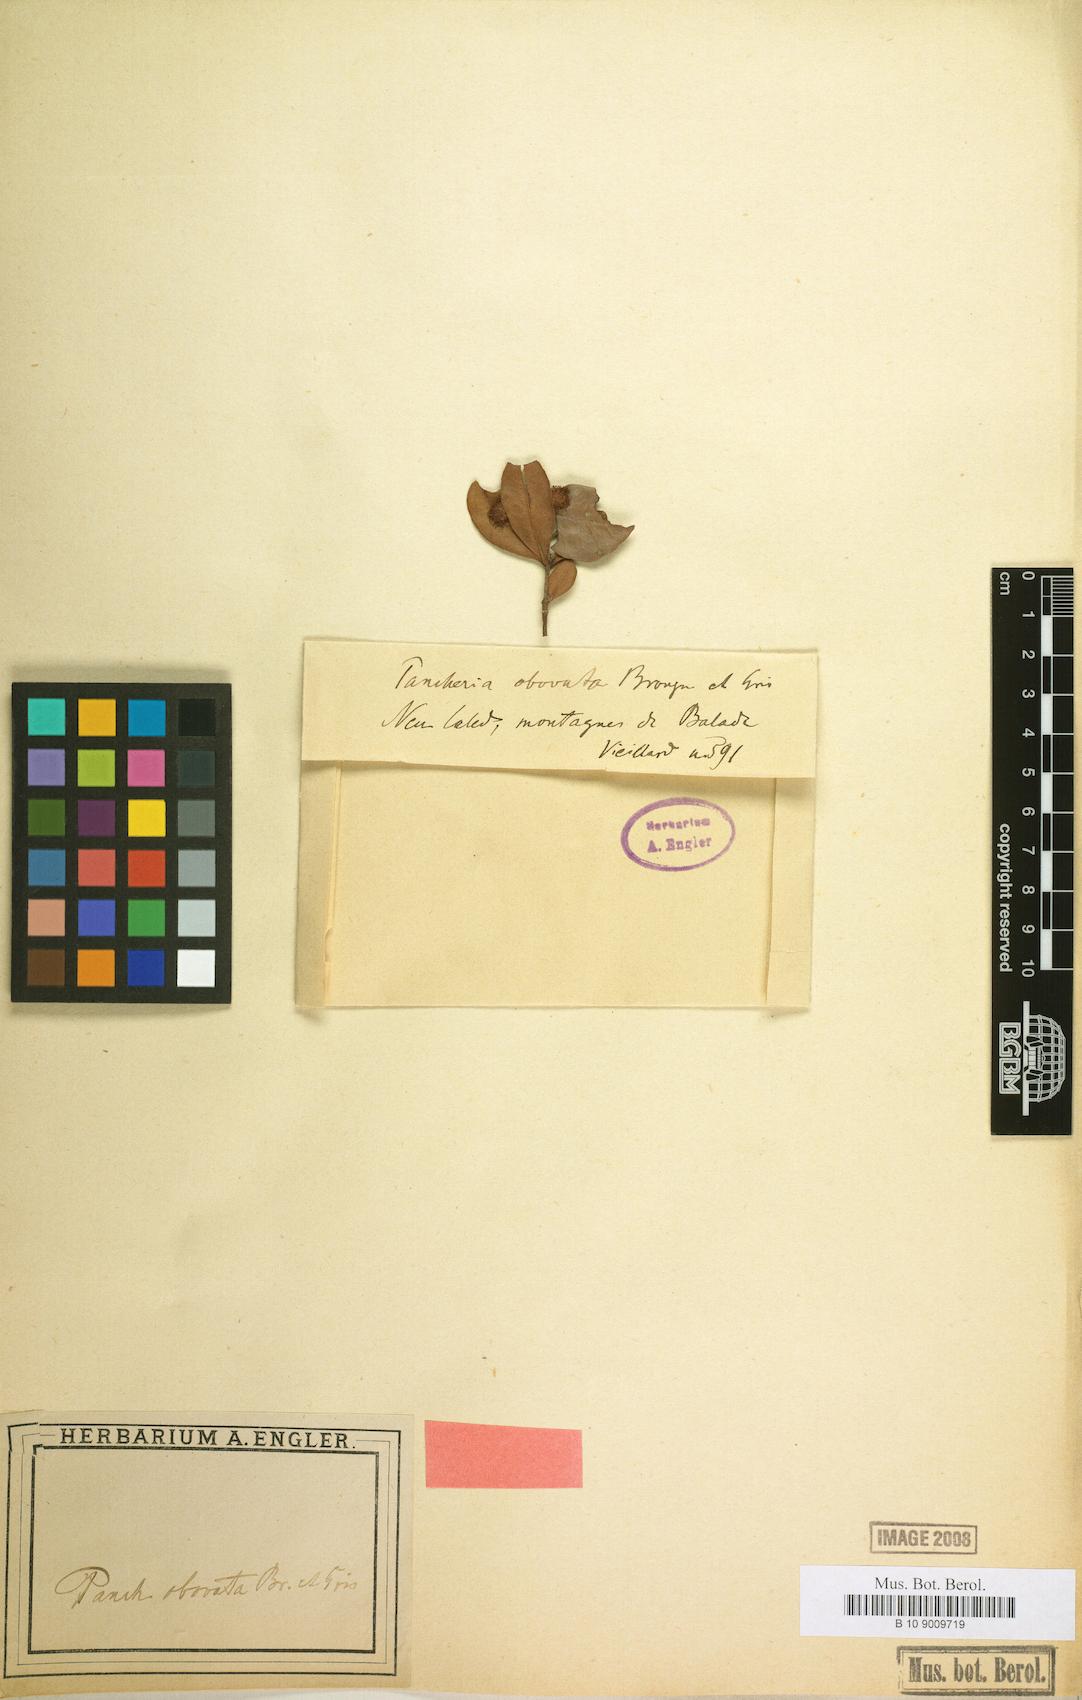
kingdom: Plantae
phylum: Tracheophyta
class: Magnoliopsida
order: Oxalidales
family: Cunoniaceae
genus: Pancheria
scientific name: Pancheria billardierei
